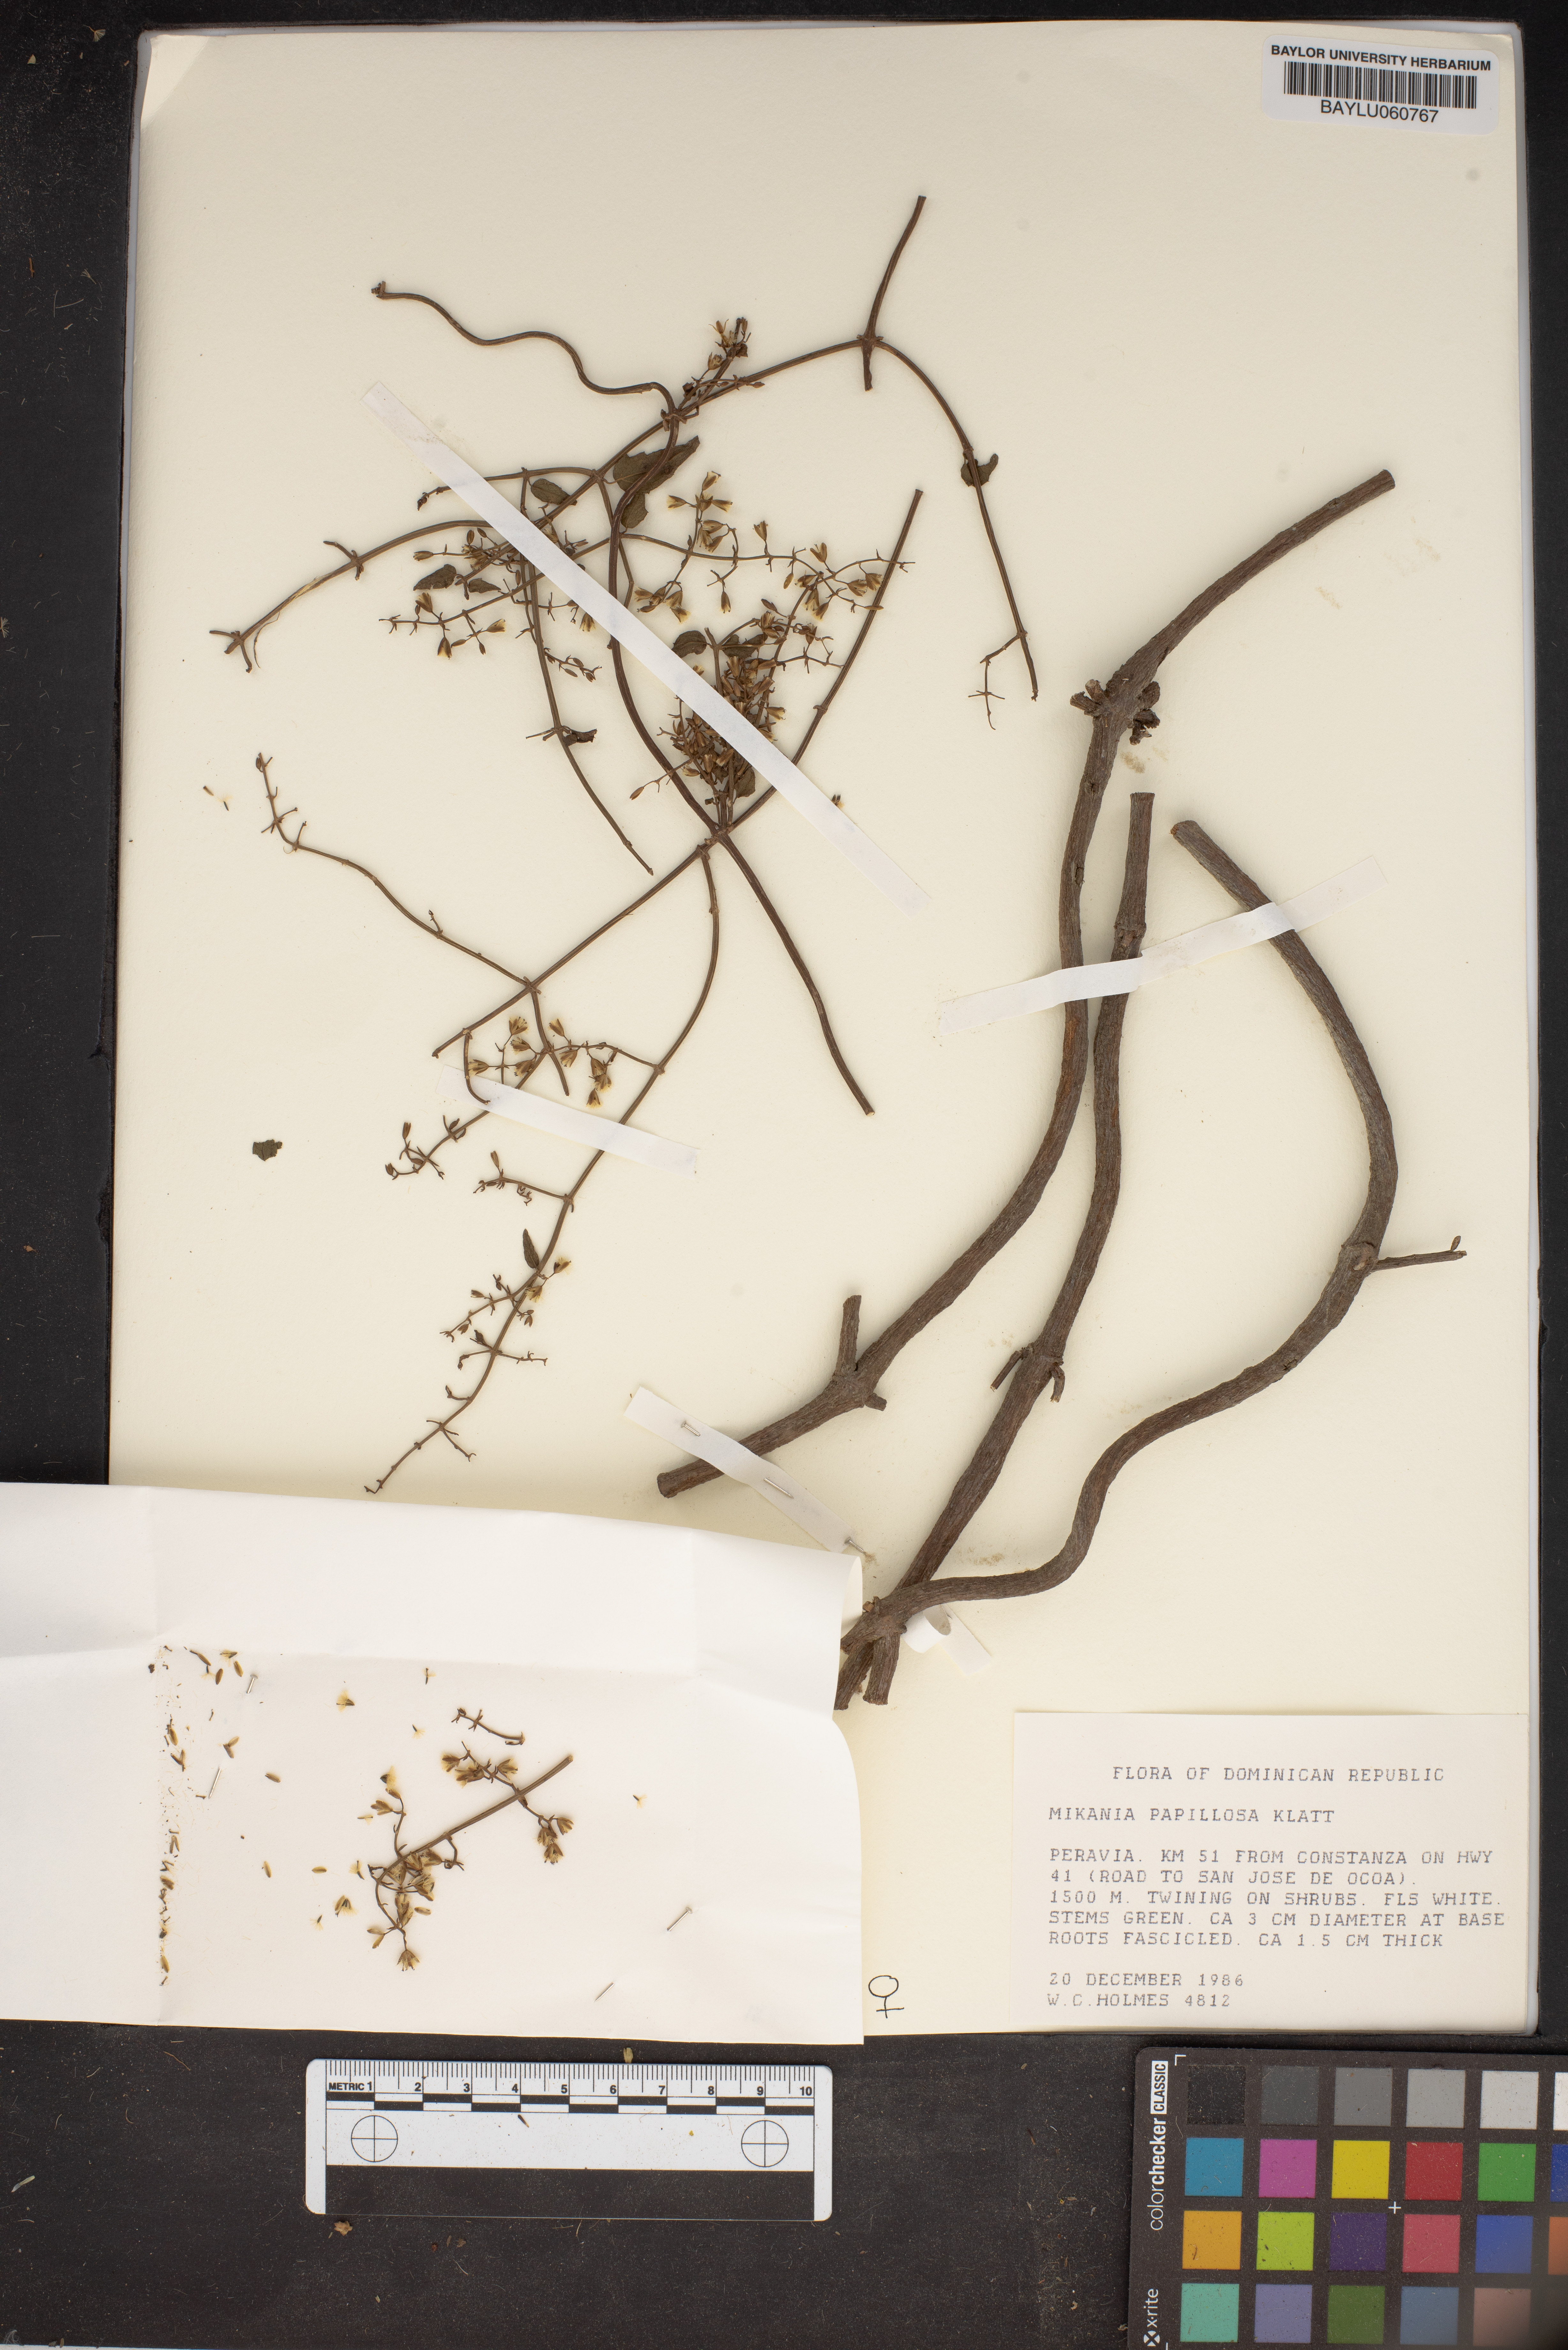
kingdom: Plantae
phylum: Tracheophyta
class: Magnoliopsida
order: Asterales
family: Asteraceae
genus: Mikania
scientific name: Mikania papillosa
